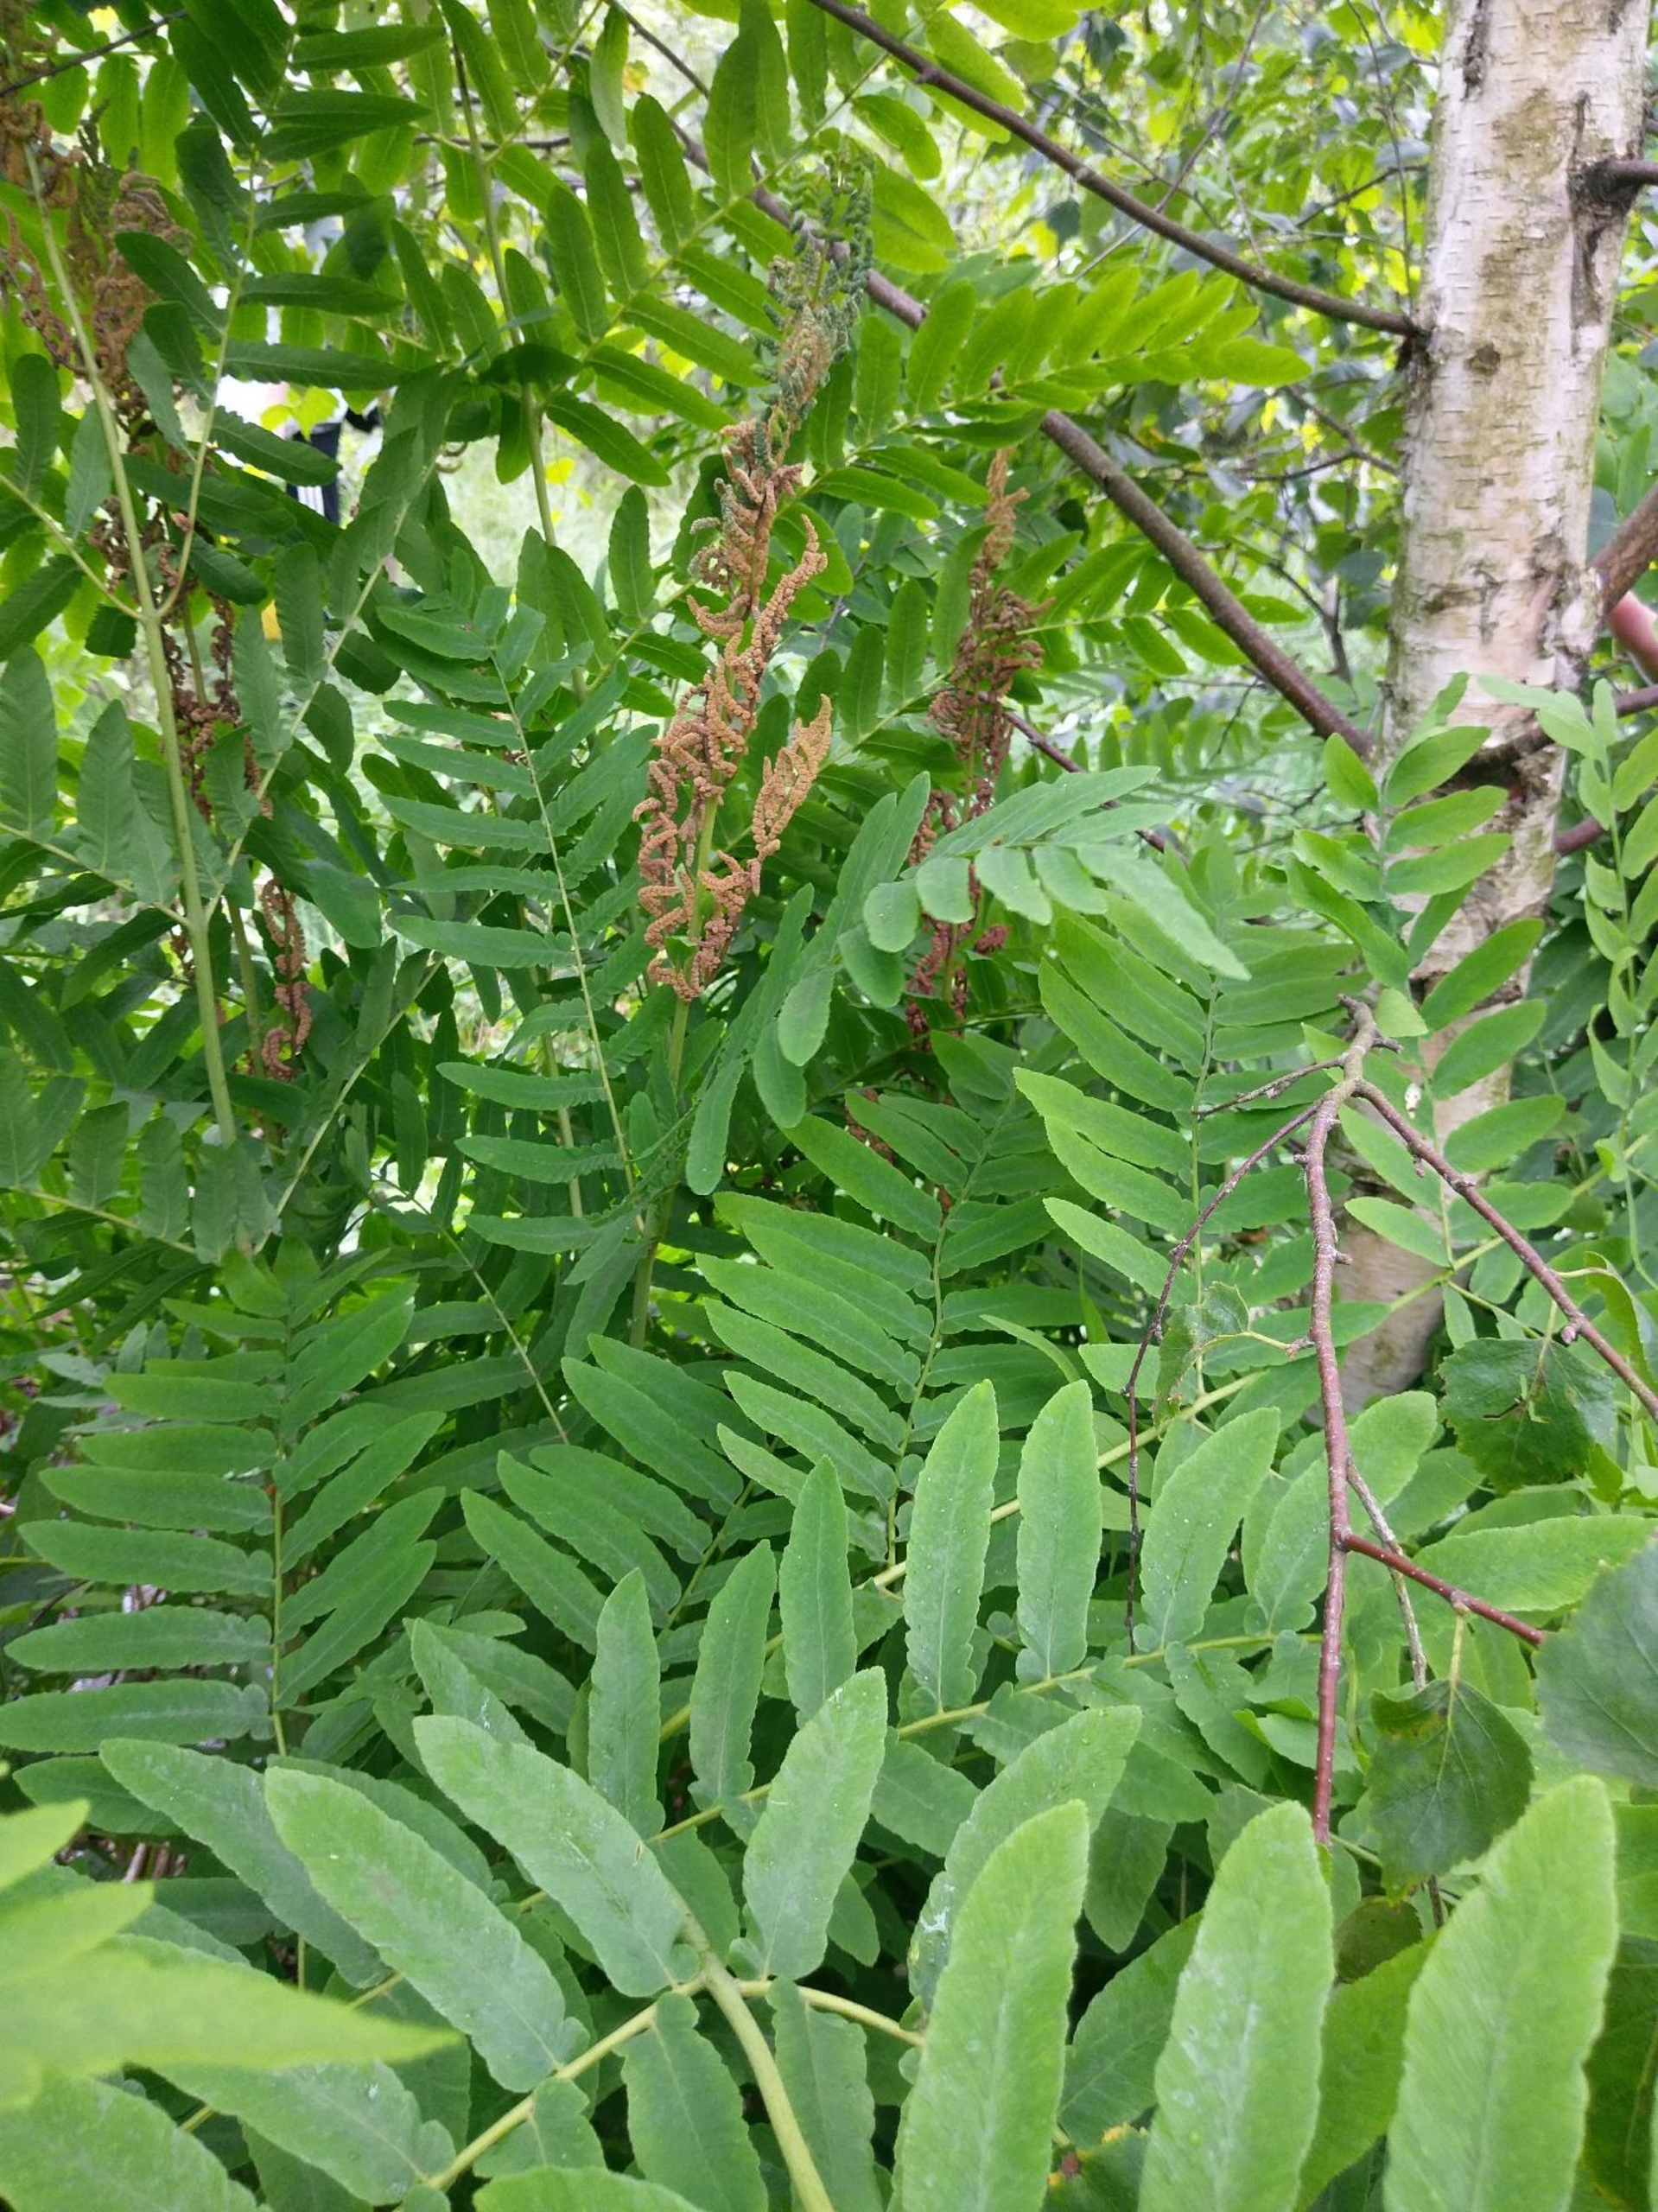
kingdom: Plantae
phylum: Tracheophyta
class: Polypodiopsida
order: Osmundales
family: Osmundaceae
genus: Osmunda
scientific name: Osmunda regalis
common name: Kongebregne
